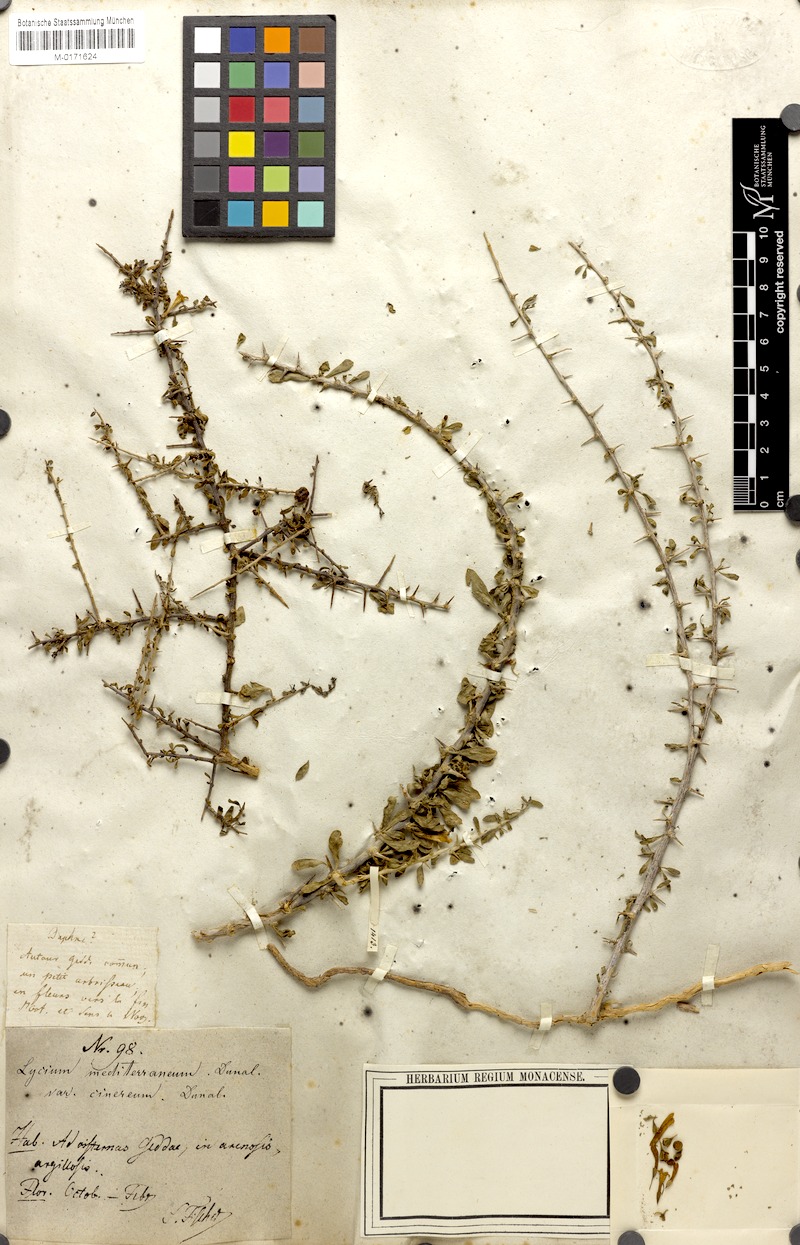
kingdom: Plantae
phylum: Tracheophyta
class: Magnoliopsida
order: Solanales
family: Solanaceae
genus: Lycium
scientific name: Lycium europaeum
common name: Boxthorn
